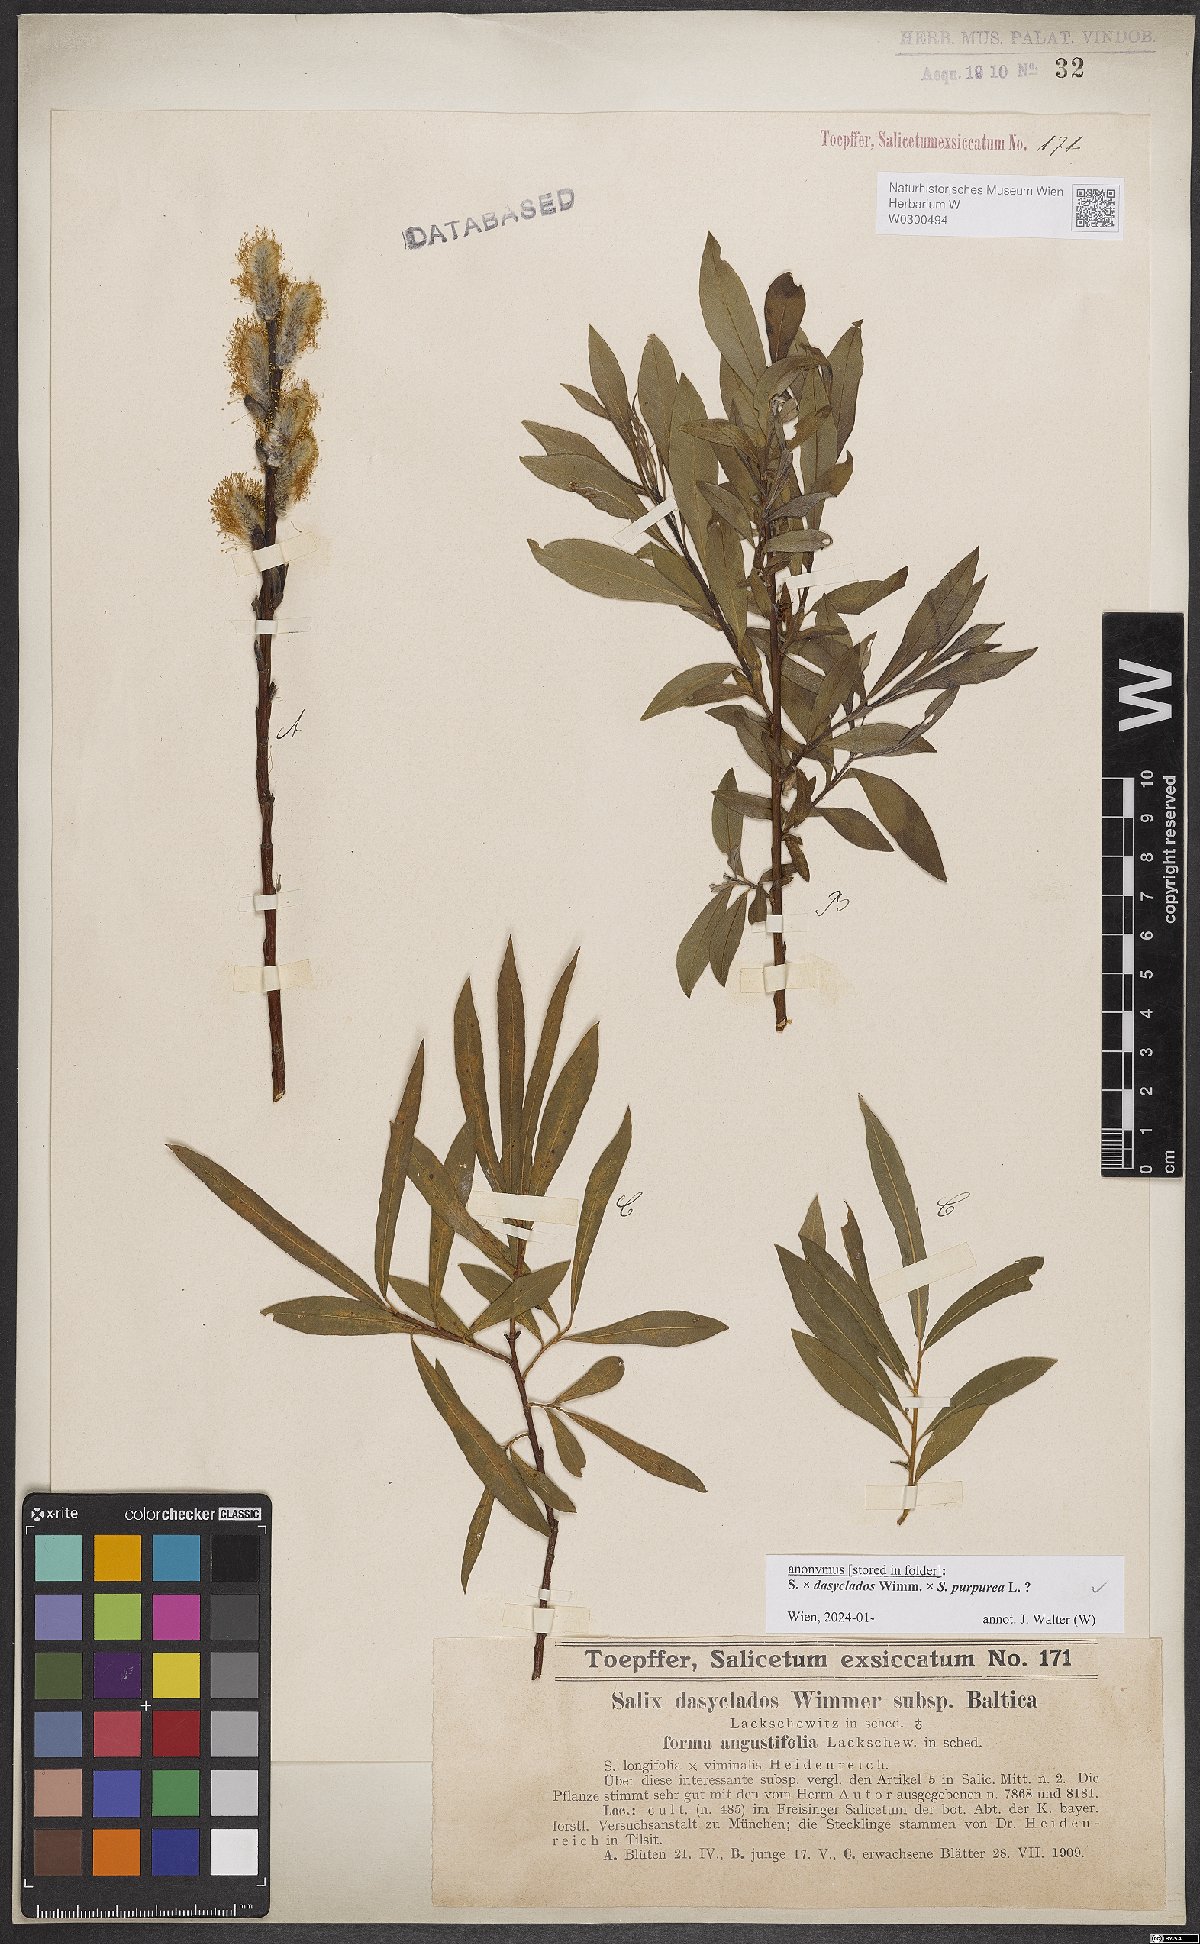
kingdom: Plantae
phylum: Tracheophyta
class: Magnoliopsida
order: Malpighiales
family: Salicaceae
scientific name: Salicaceae
